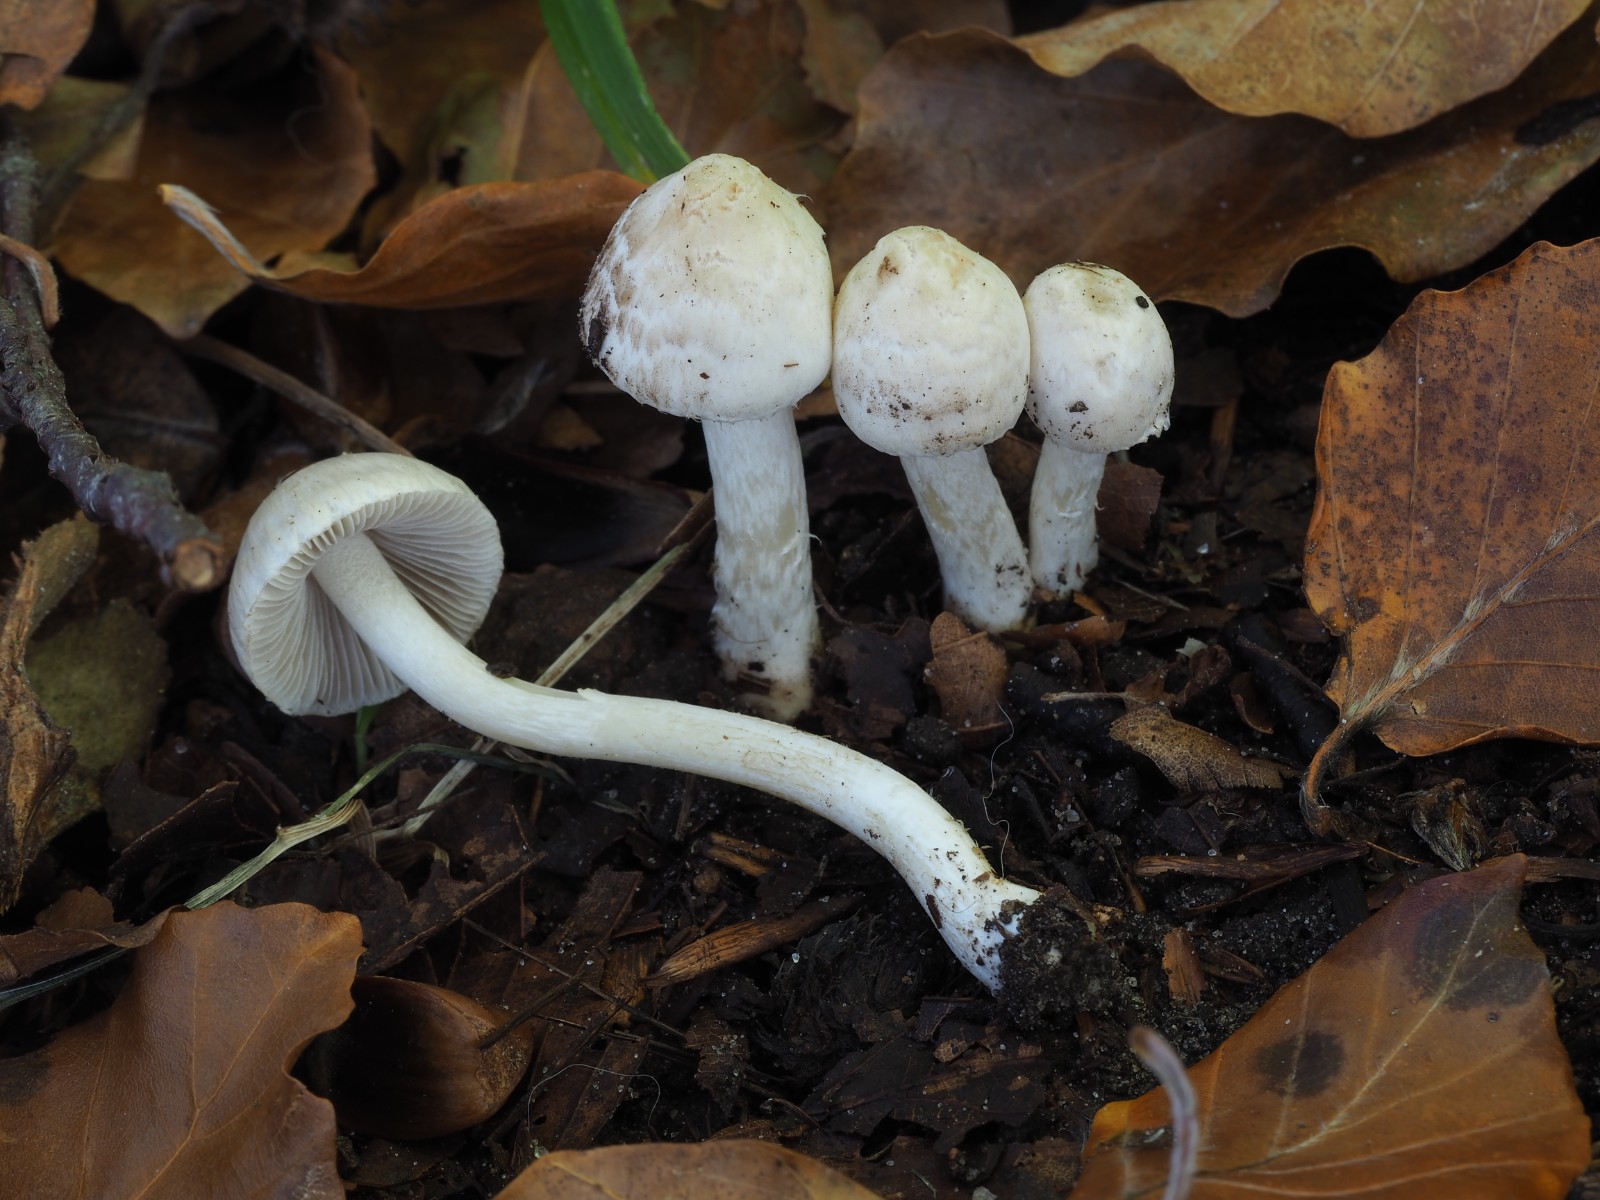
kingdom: Fungi
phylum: Basidiomycota
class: Agaricomycetes
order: Agaricales
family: Inocybaceae
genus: Inocybe
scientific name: Inocybe sindonia
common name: bleg trævlhat
